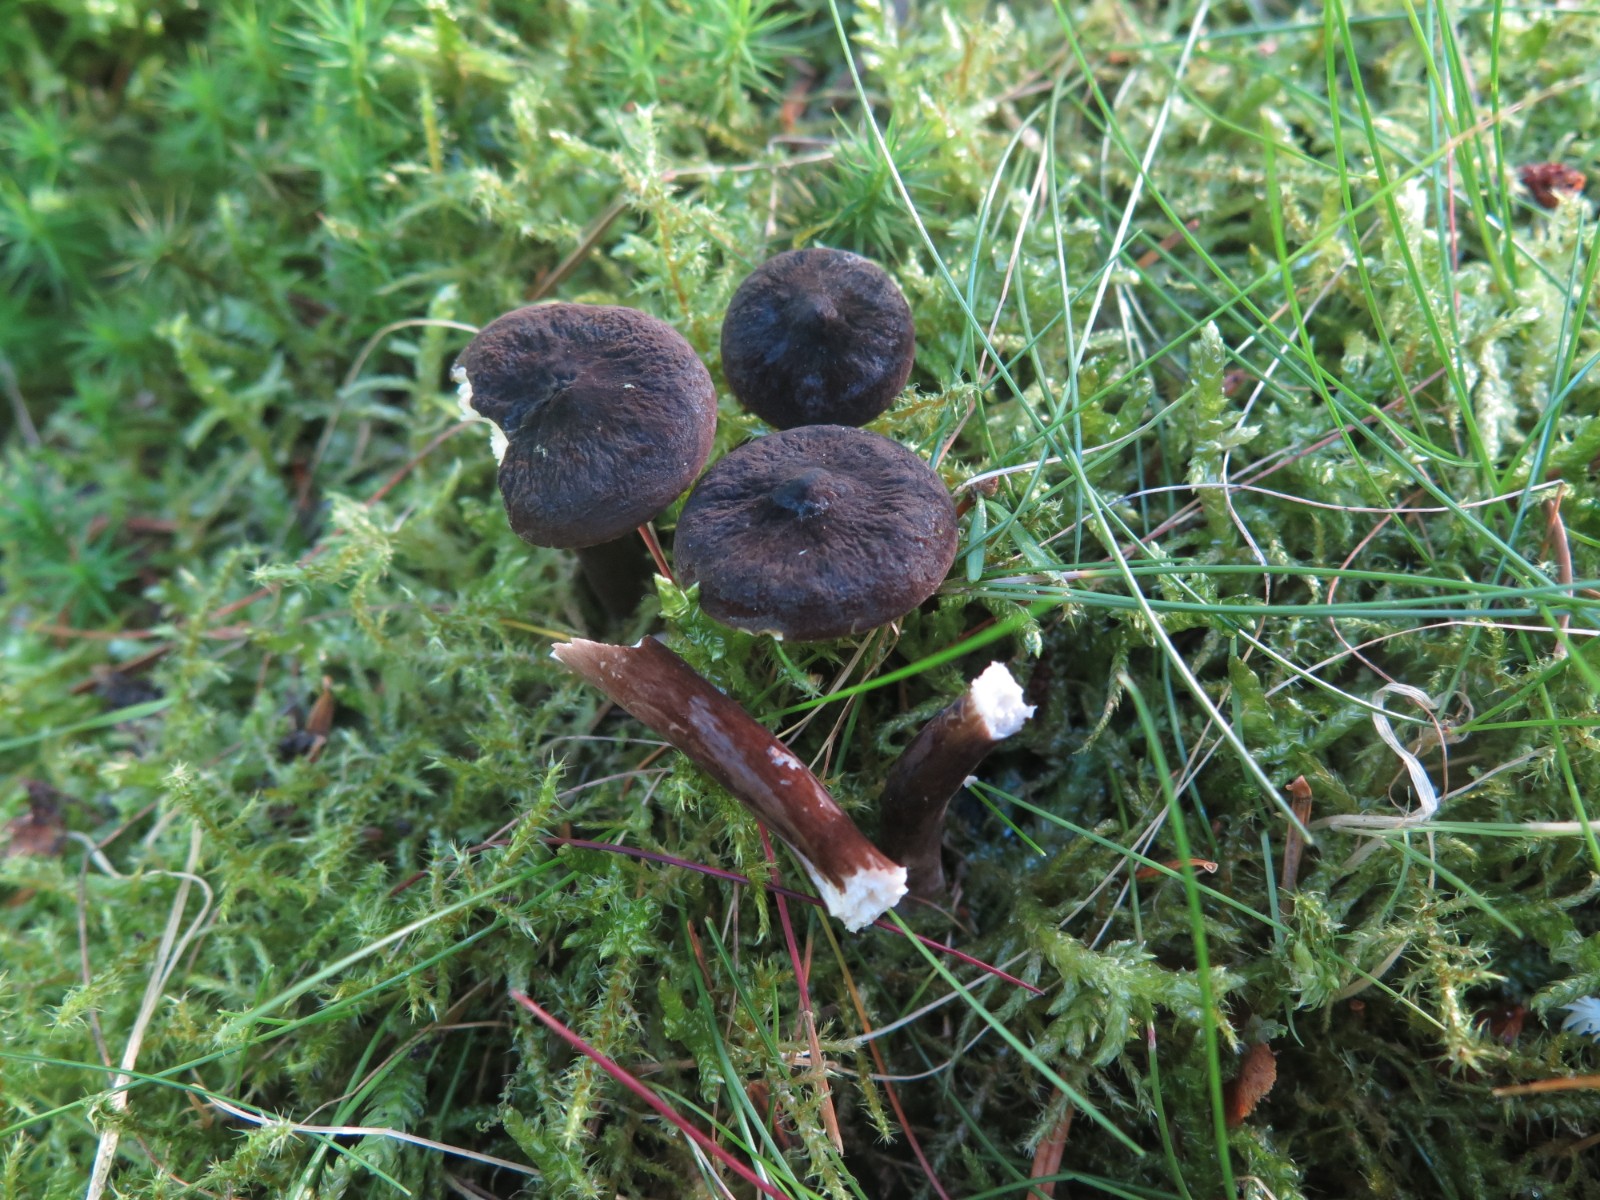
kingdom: Fungi
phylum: Basidiomycota
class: Agaricomycetes
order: Russulales
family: Russulaceae
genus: Lactarius
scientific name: Lactarius lignyotus
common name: fløjls-mælkehat
